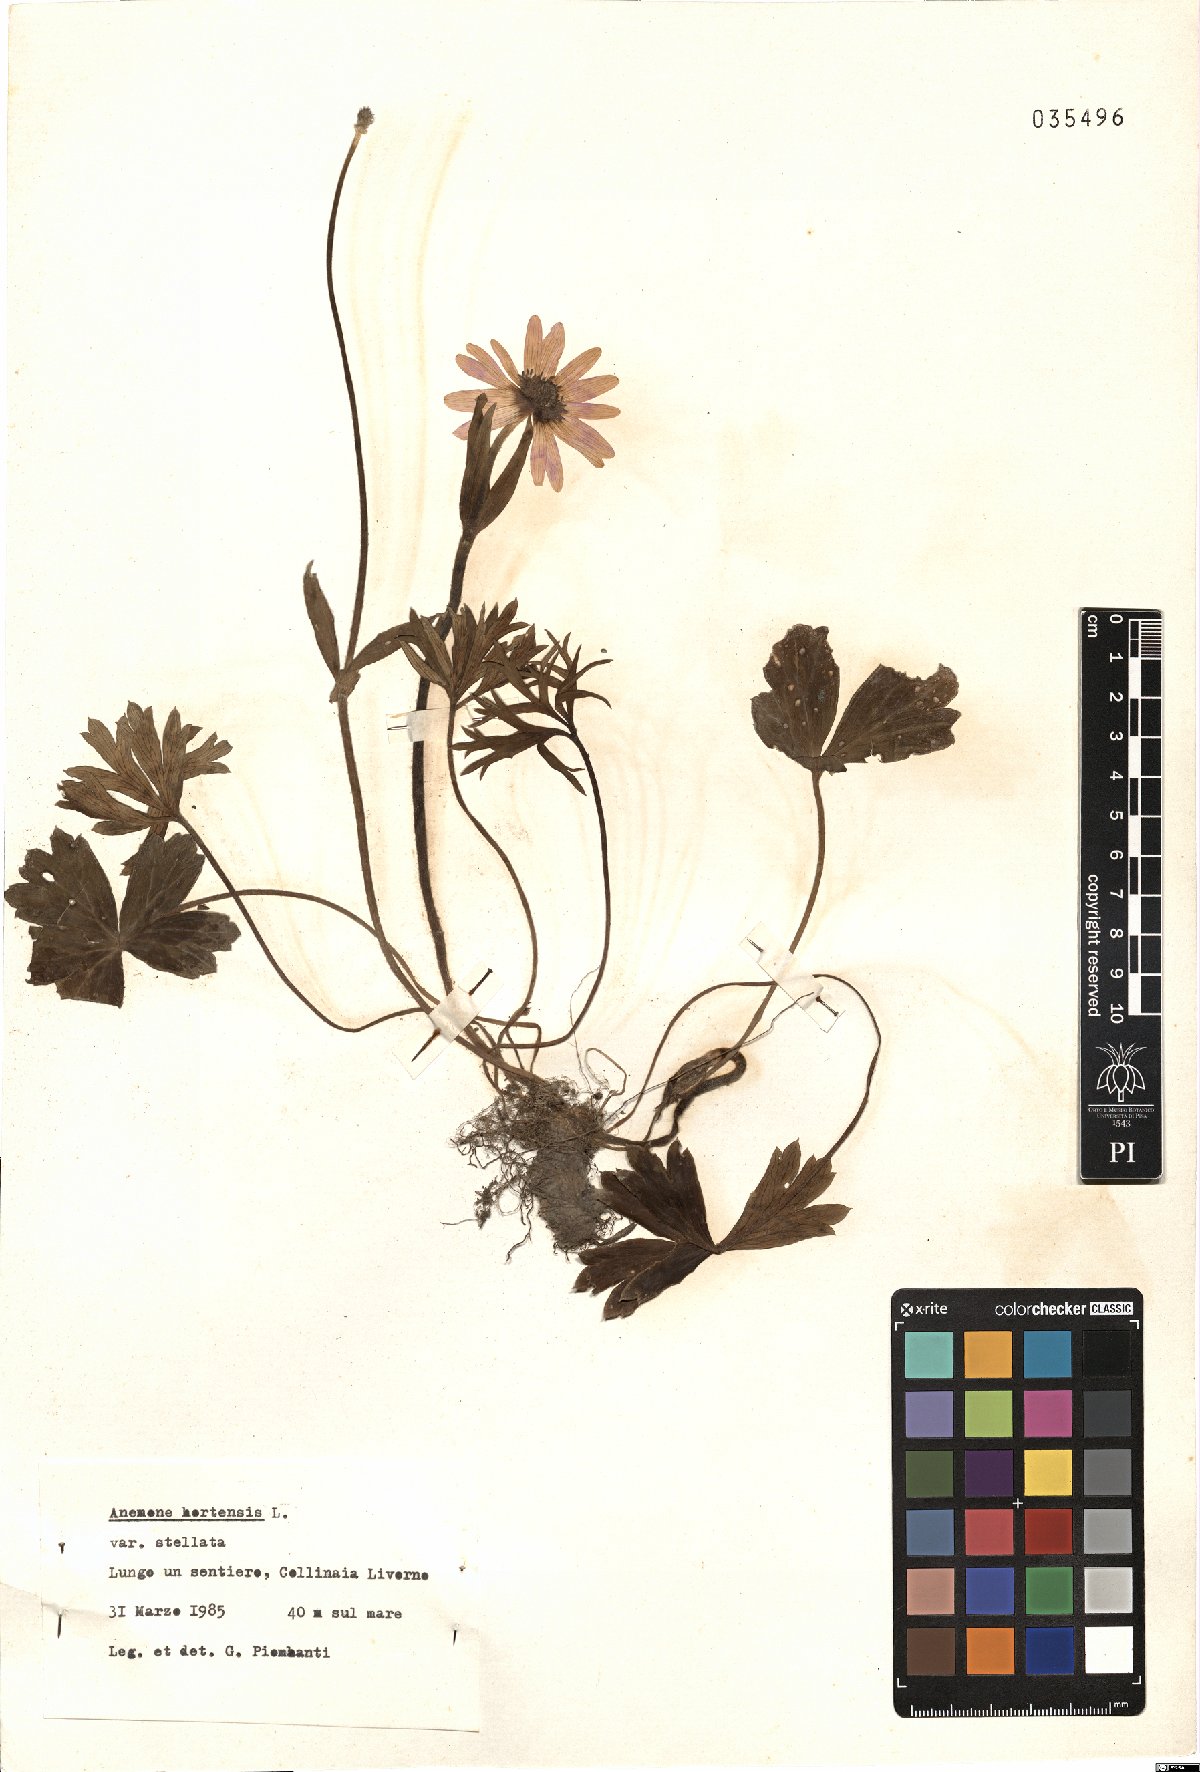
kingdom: Plantae
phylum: Tracheophyta
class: Magnoliopsida
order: Ranunculales
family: Ranunculaceae
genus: Anemone
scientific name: Anemone hortensis
